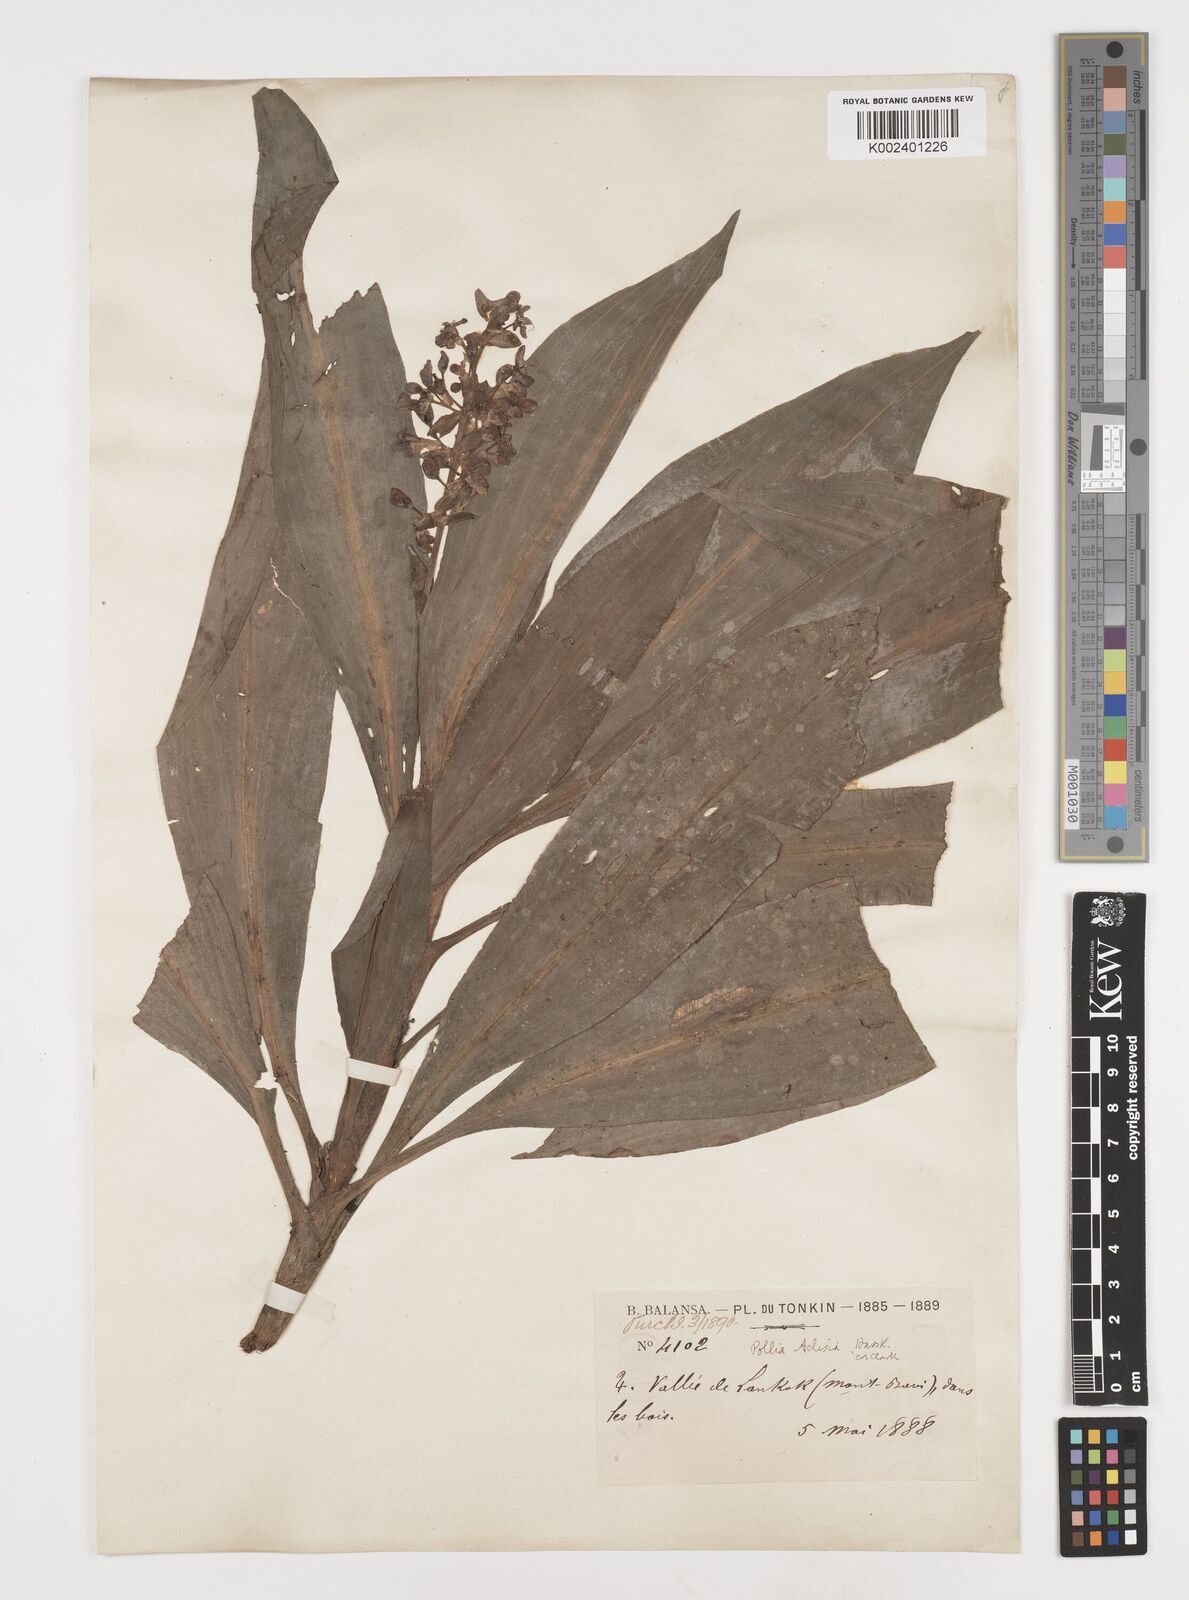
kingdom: Plantae
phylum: Tracheophyta
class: Liliopsida
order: Commelinales
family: Commelinaceae
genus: Pollia
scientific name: Pollia hasskarlii
